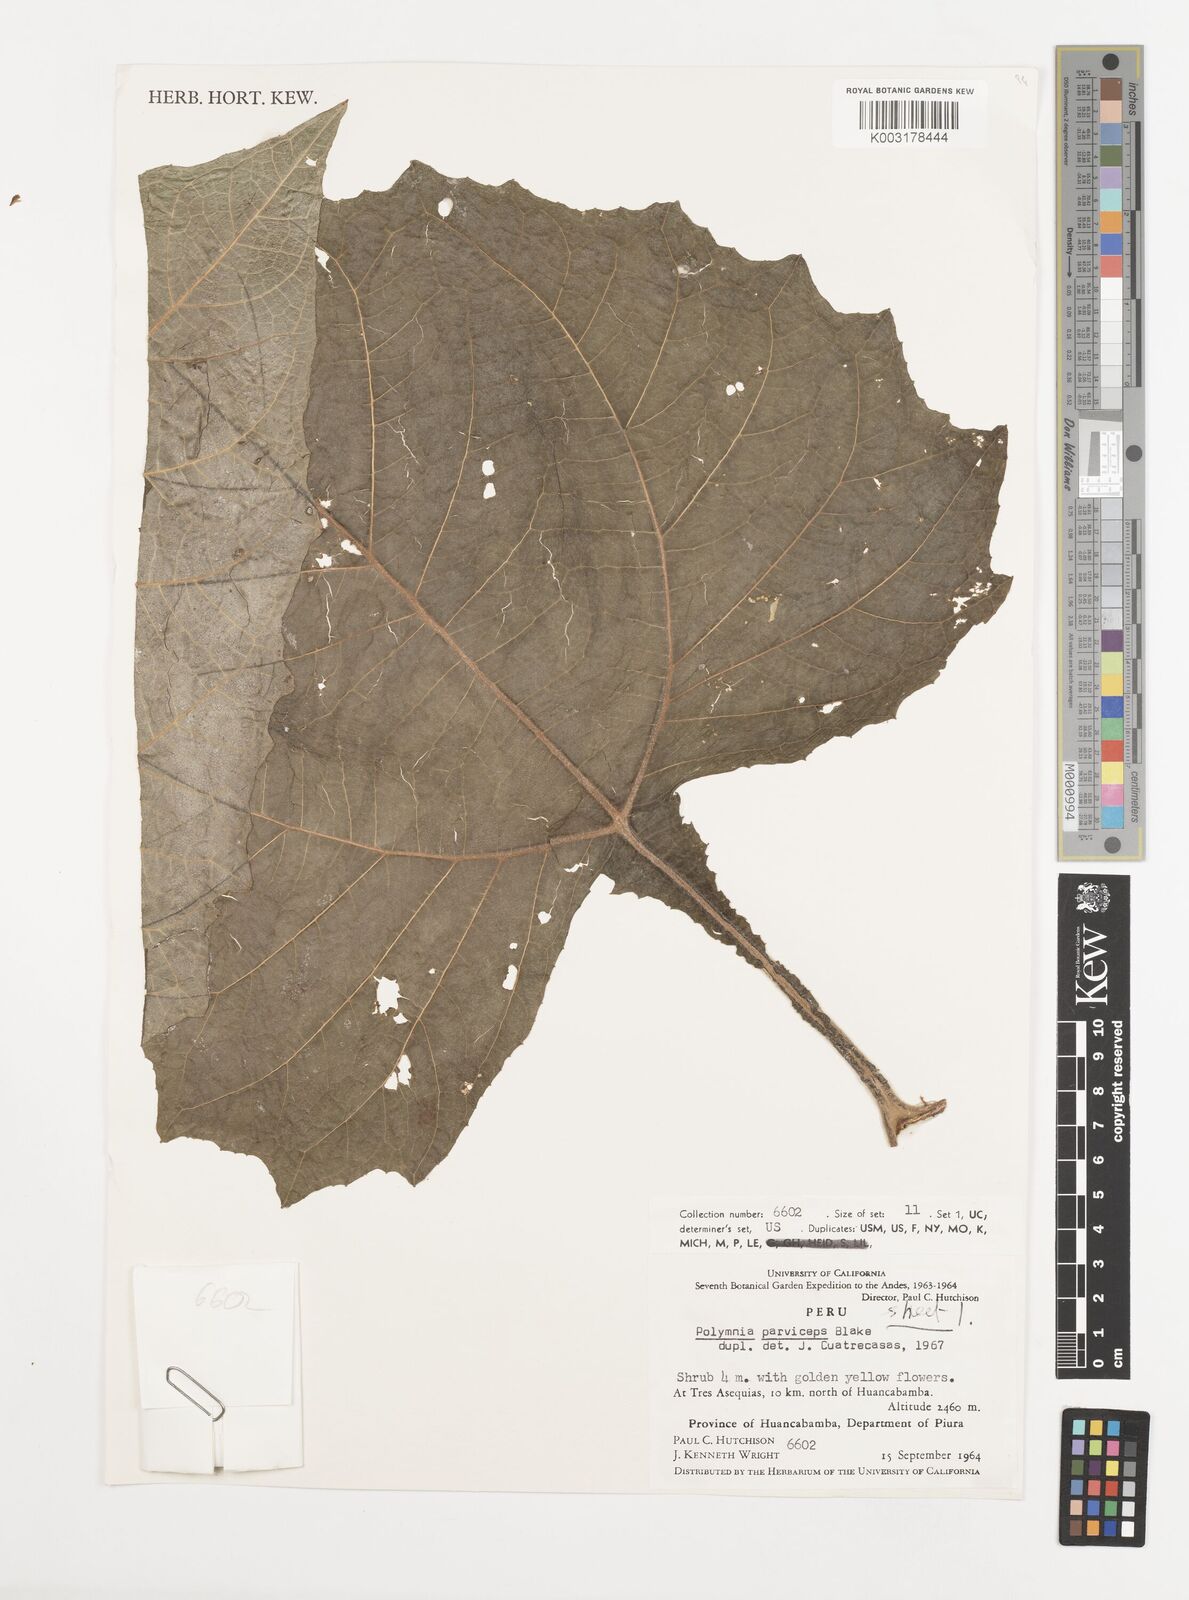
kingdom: Plantae
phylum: Tracheophyta
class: Magnoliopsida
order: Asterales
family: Asteraceae
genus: Smallanthus
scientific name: Smallanthus parviceps
